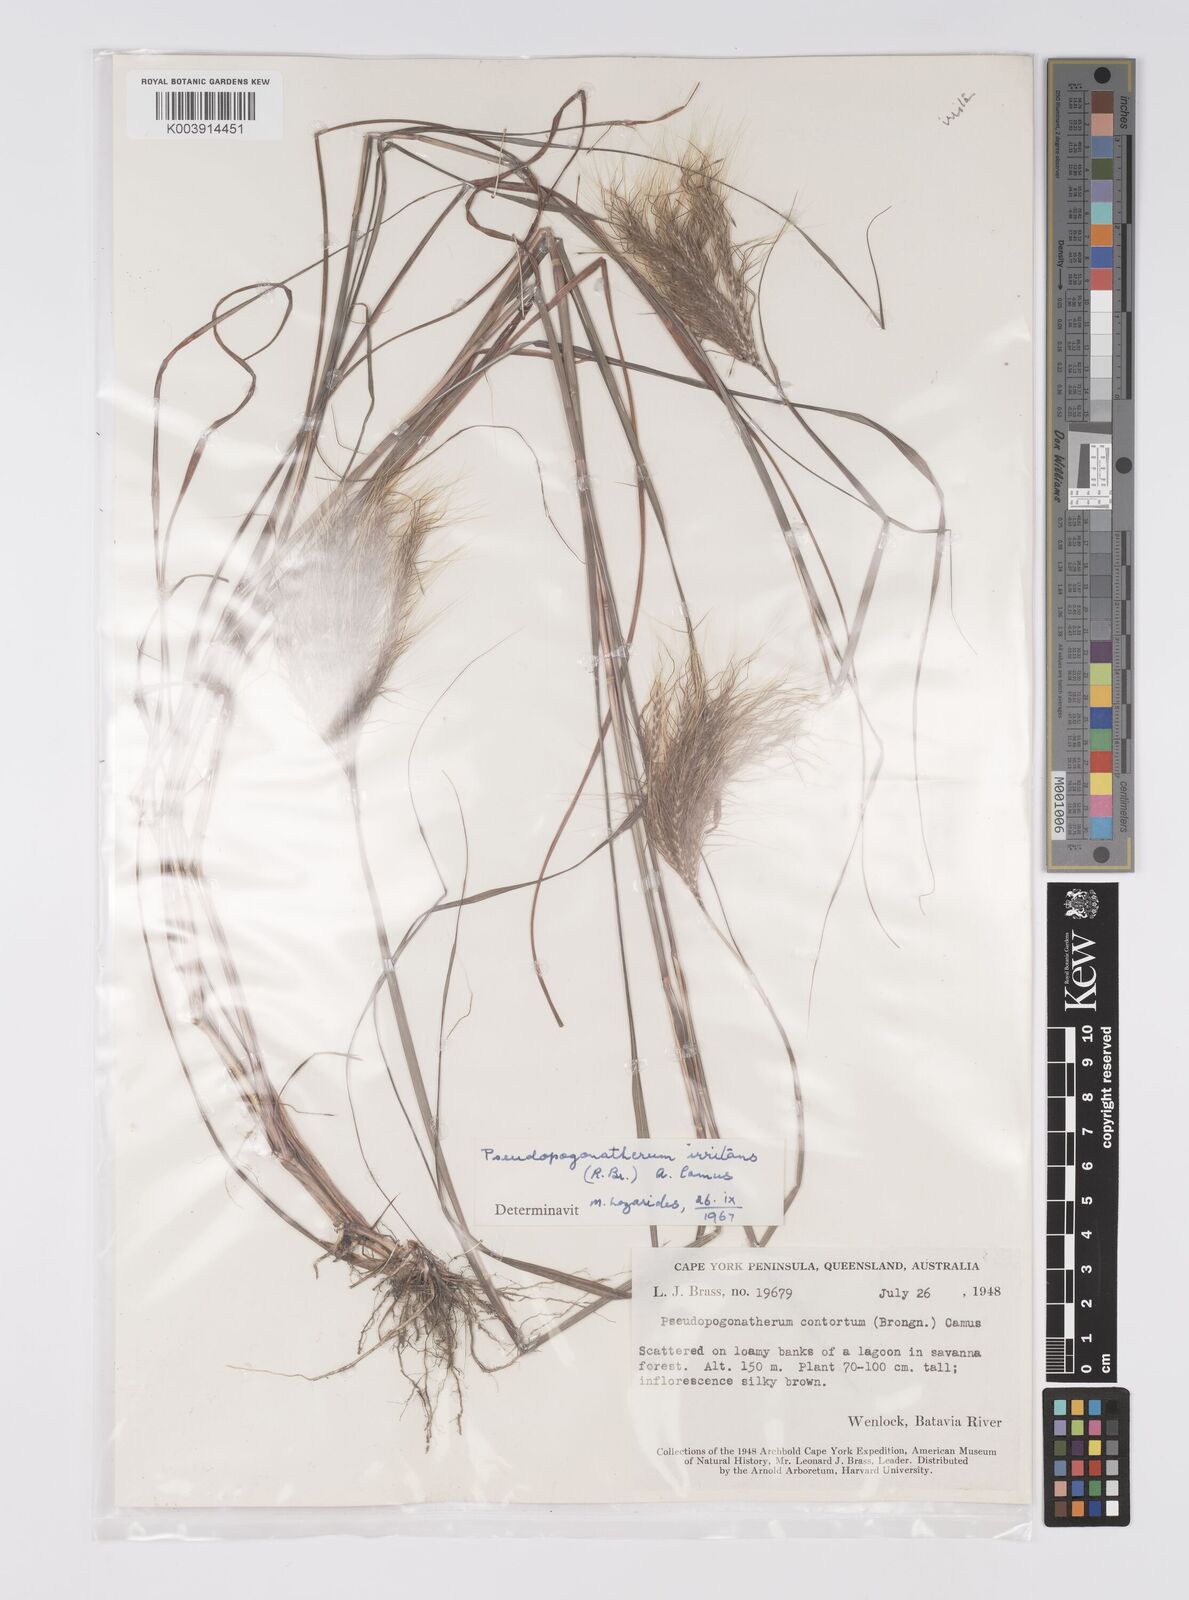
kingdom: Plantae
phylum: Tracheophyta
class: Liliopsida
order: Poales
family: Poaceae
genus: Pseudopogonatherum
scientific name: Pseudopogonatherum irritans
